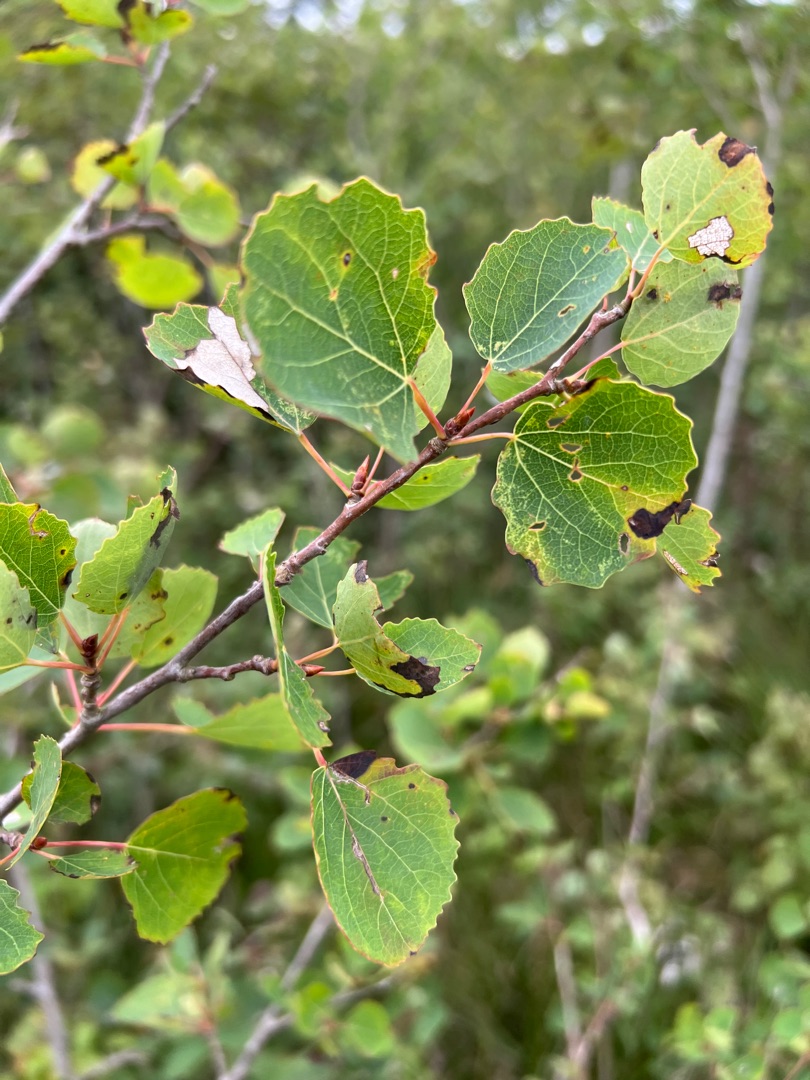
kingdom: Plantae
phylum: Tracheophyta
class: Magnoliopsida
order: Malpighiales
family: Salicaceae
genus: Populus
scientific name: Populus tremula
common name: Bævreasp
